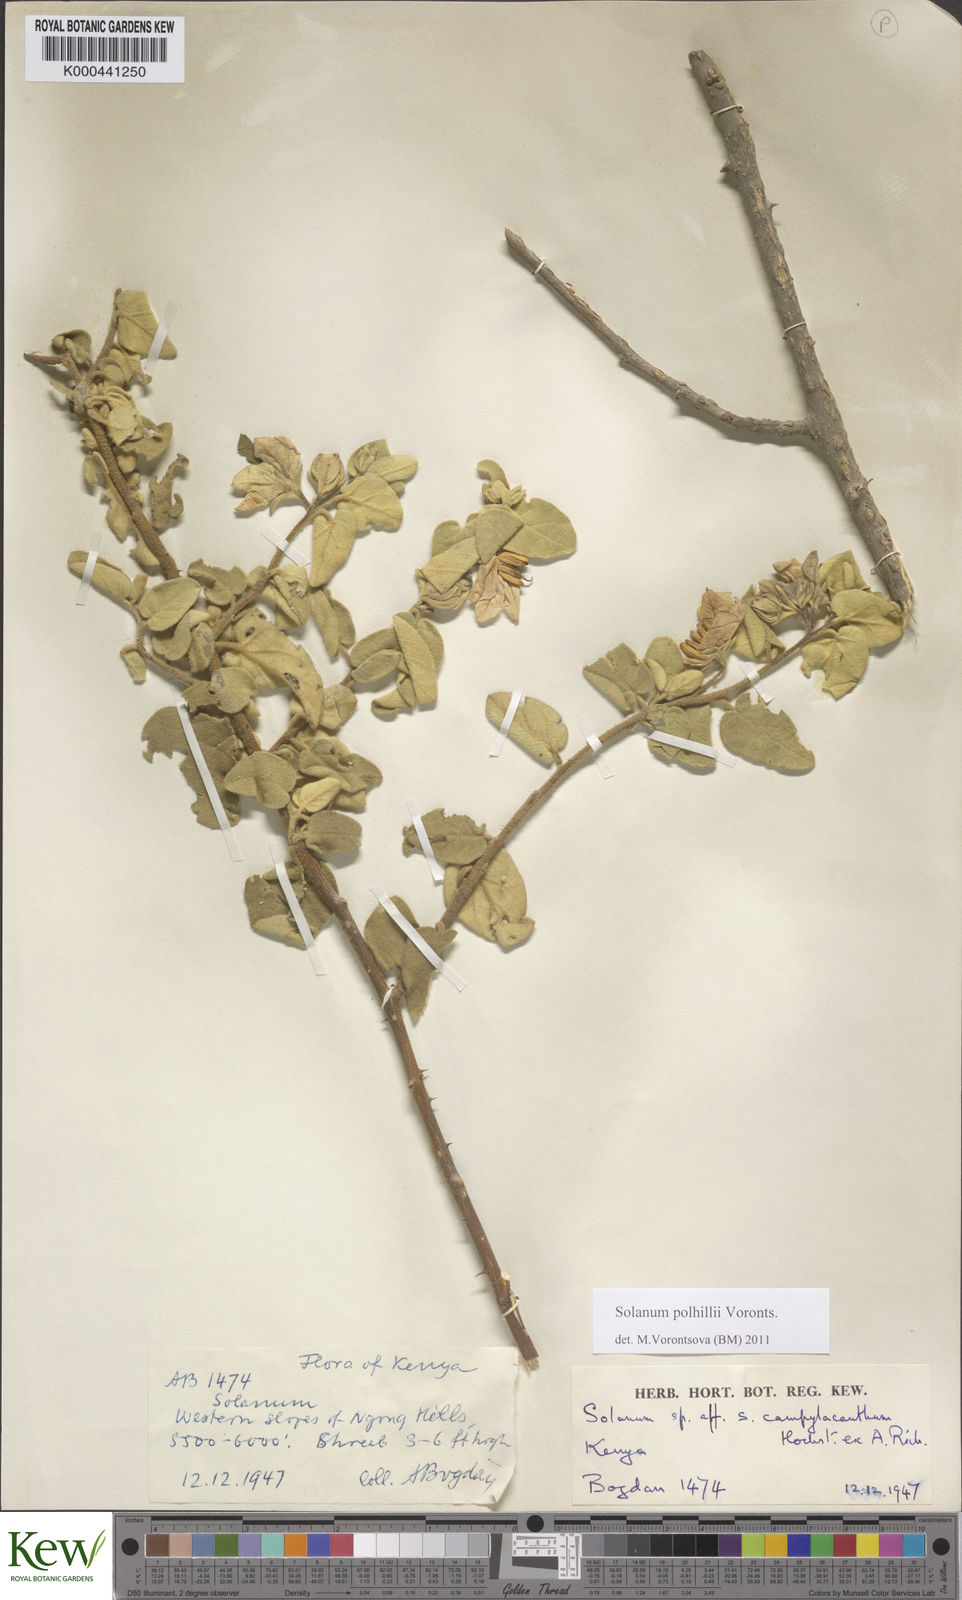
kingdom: Plantae
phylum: Tracheophyta
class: Magnoliopsida
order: Solanales
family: Solanaceae
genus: Solanum
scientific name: Solanum polhillii
